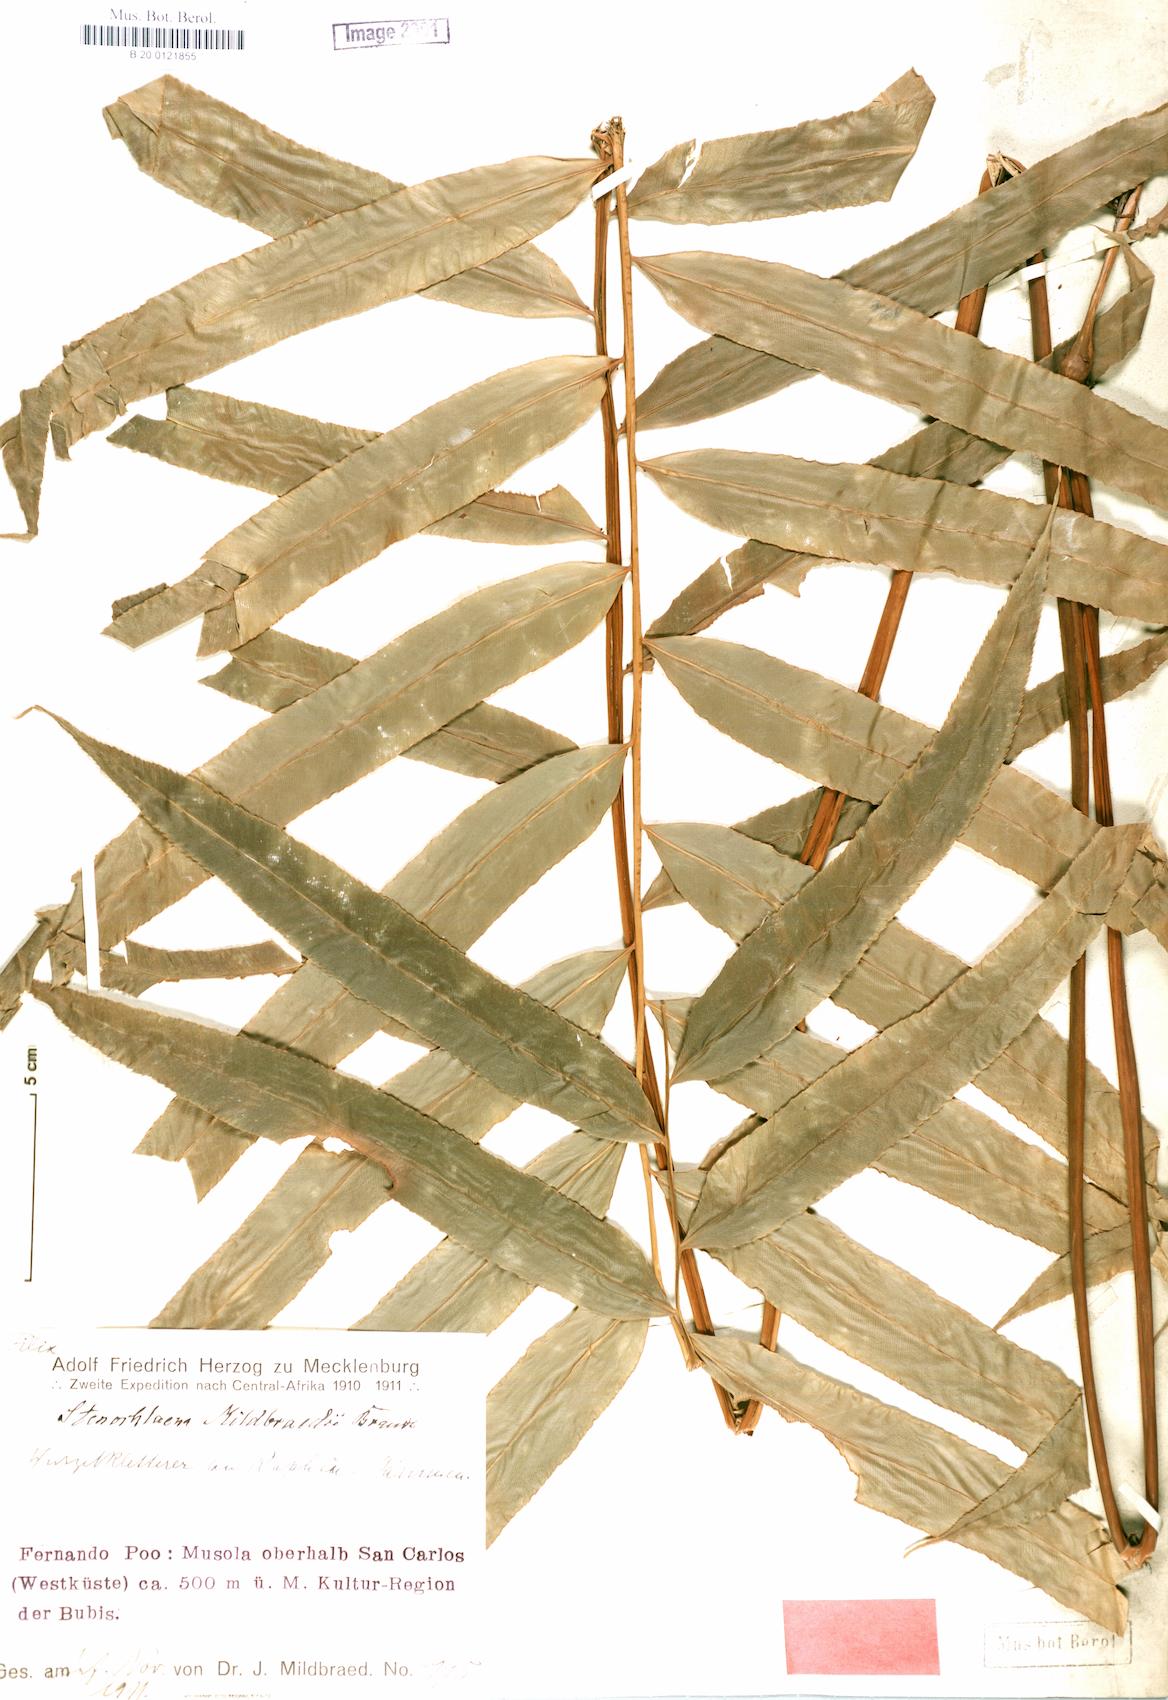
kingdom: Plantae
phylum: Tracheophyta
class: Polypodiopsida
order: Polypodiales
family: Blechnaceae
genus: Stenochlaena
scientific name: Stenochlaena tenuifolia
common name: Giant vine fern
